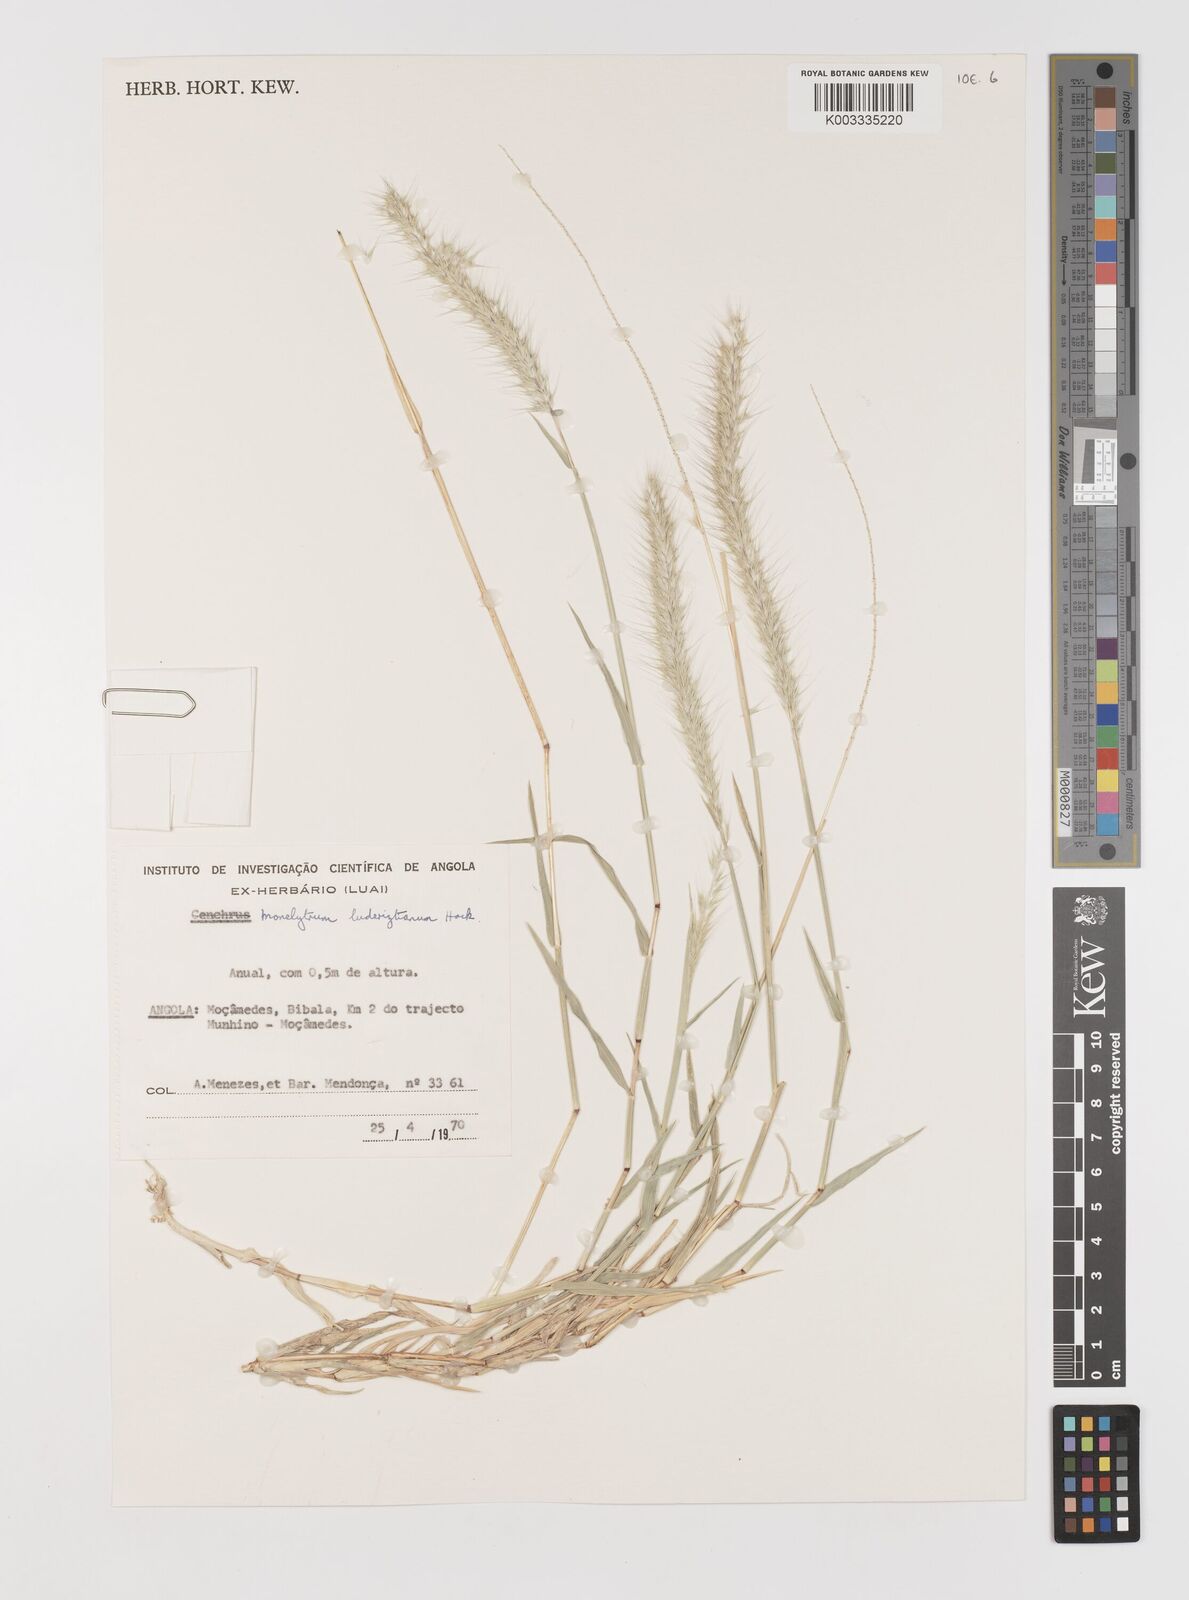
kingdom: Plantae
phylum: Tracheophyta
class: Liliopsida
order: Poales
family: Poaceae
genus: Monelytrum
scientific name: Monelytrum luederitzianum
